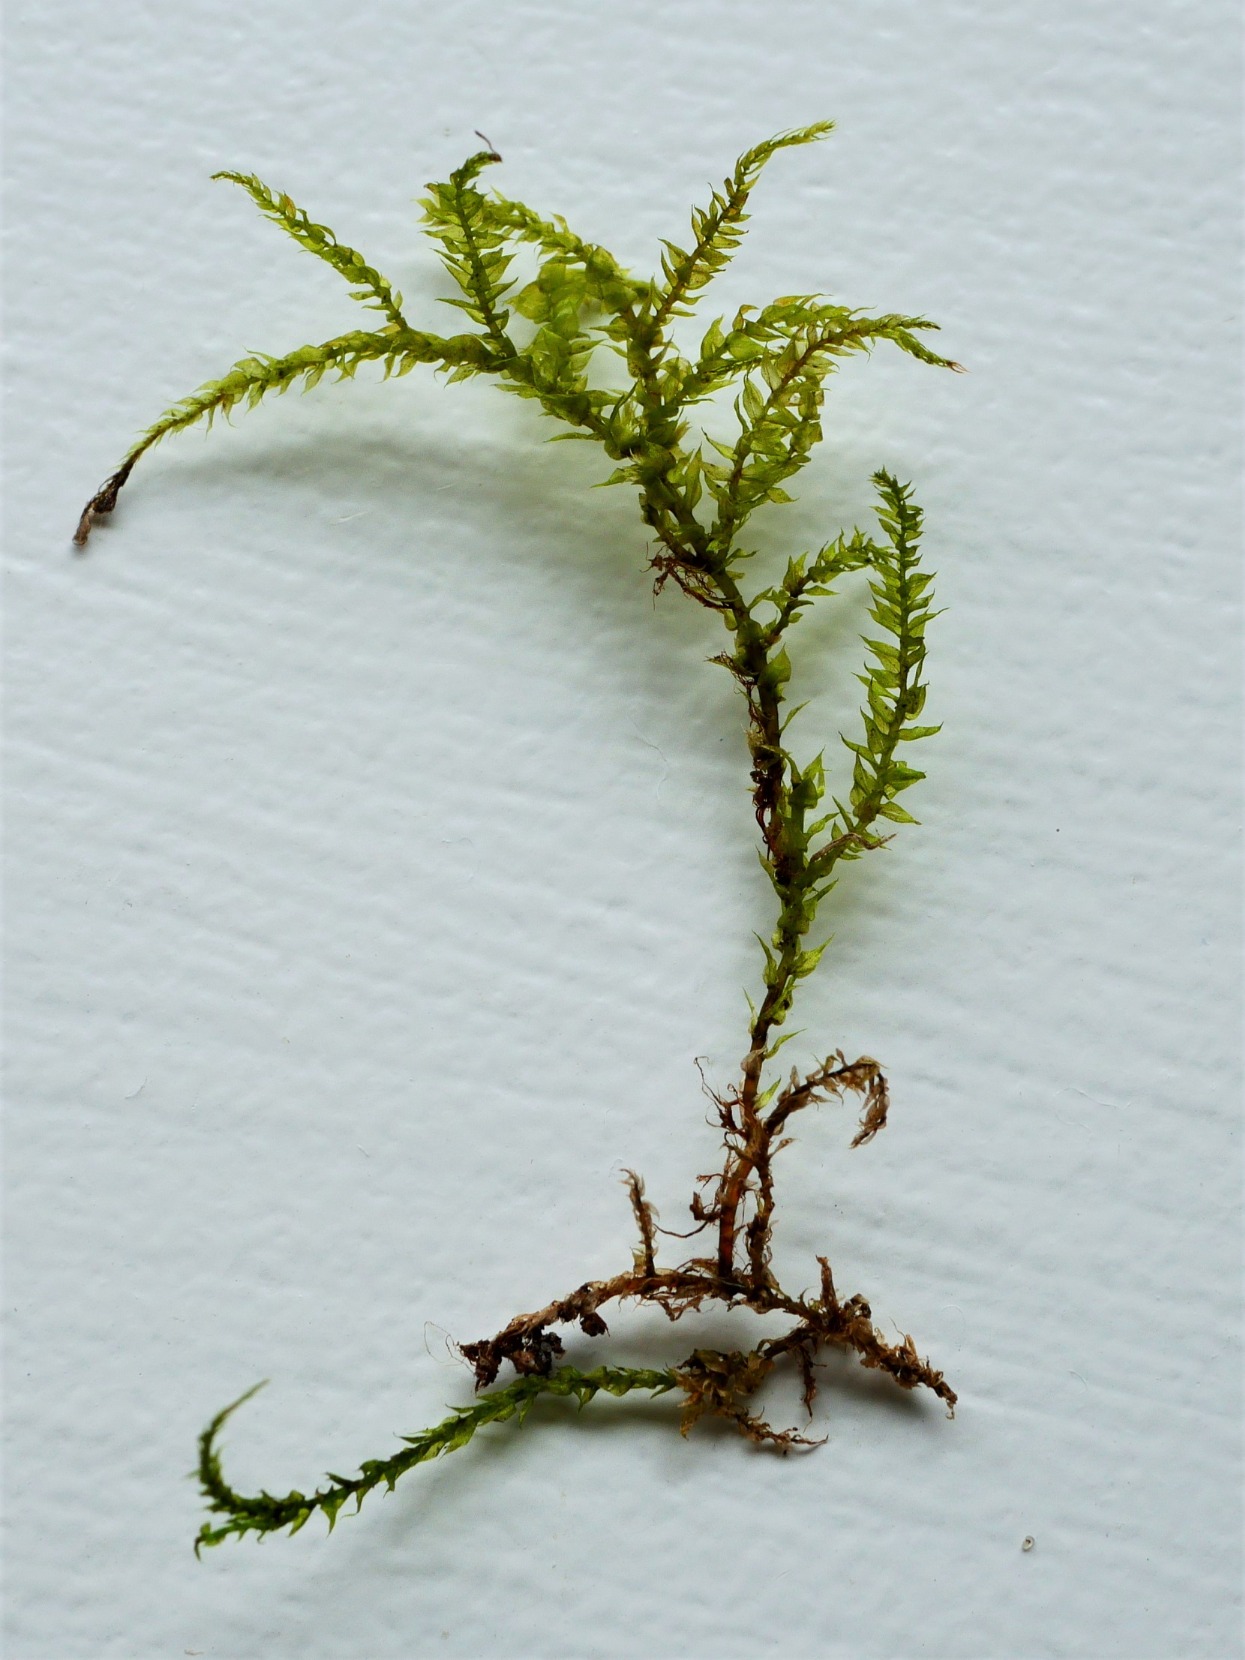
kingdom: Plantae
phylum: Bryophyta
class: Bryopsida
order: Hypnales
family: Brachytheciaceae
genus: Sciuro-hypnum
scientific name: Sciuro-hypnum curtum
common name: Grøn kortkapsel
